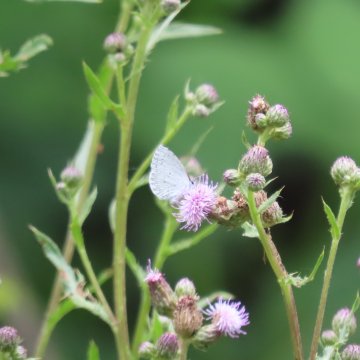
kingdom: Animalia
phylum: Arthropoda
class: Insecta
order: Lepidoptera
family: Lycaenidae
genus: Cyaniris
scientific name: Cyaniris neglecta
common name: Summer Azure
